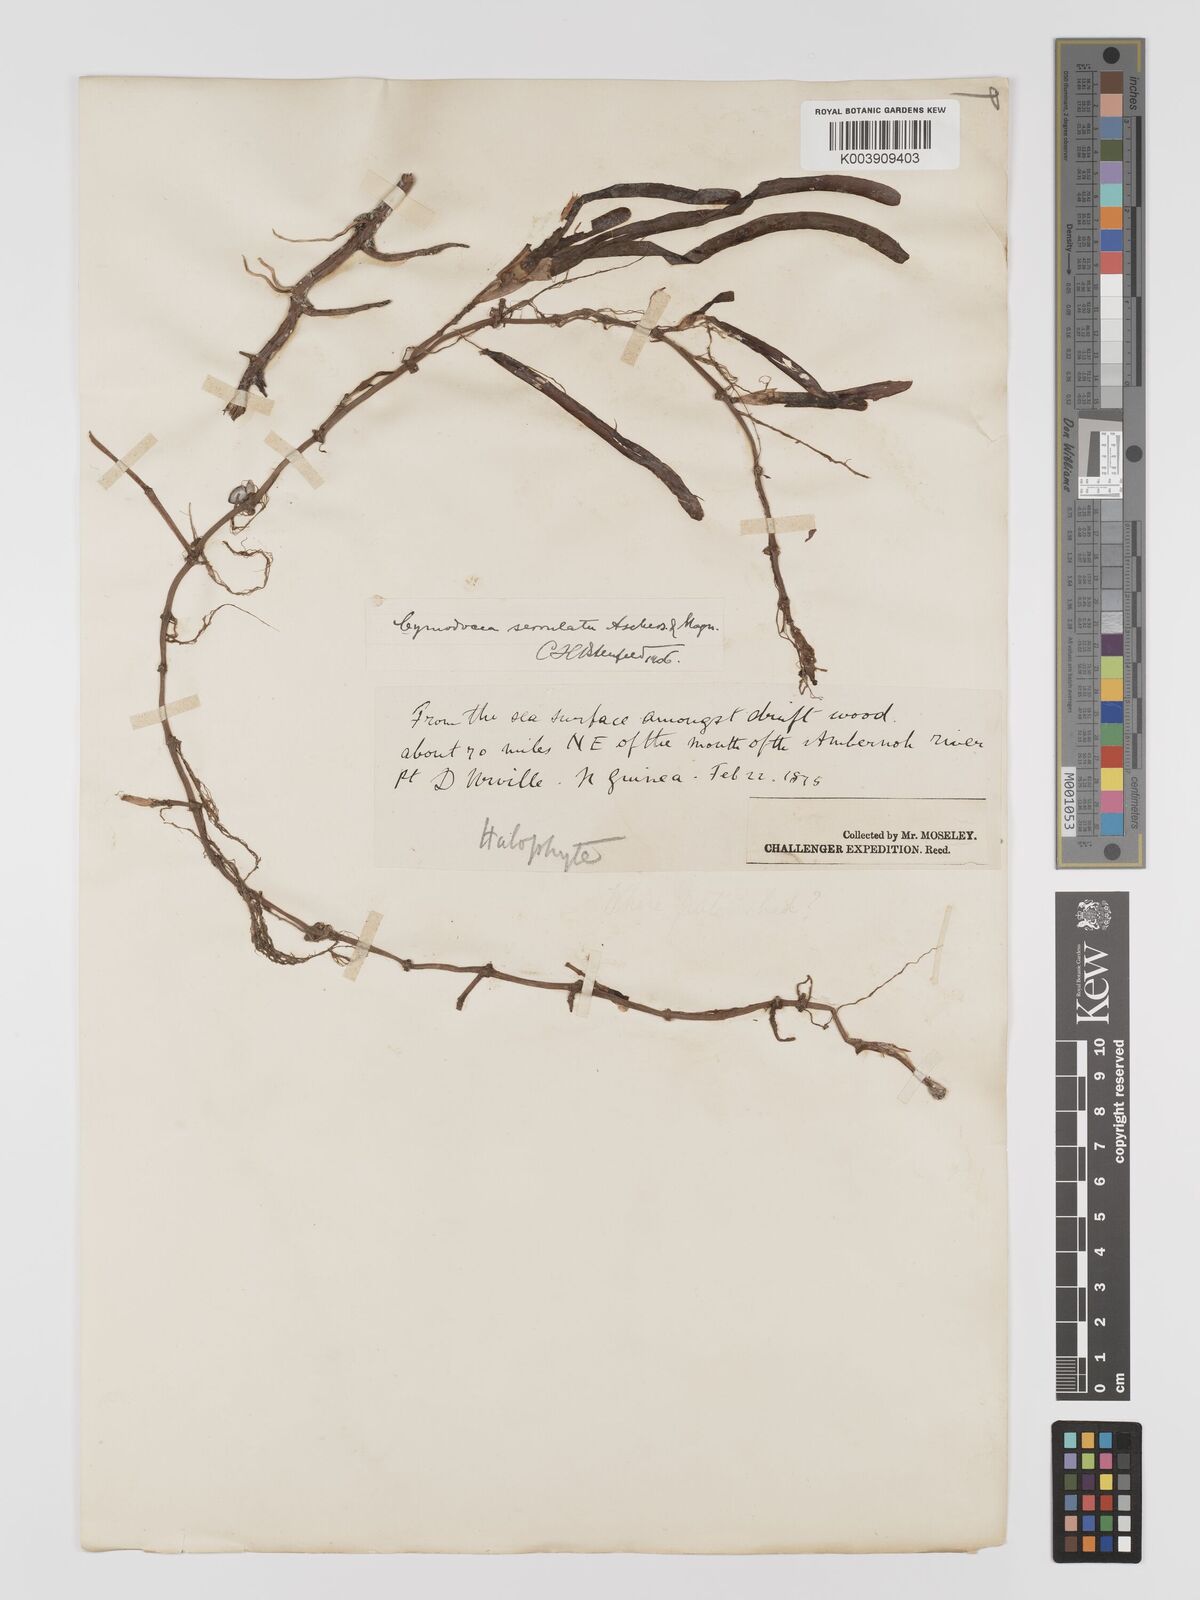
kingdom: Plantae
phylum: Tracheophyta
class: Liliopsida
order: Alismatales
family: Cymodoceaceae
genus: Oceana
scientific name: Oceana serrulata
